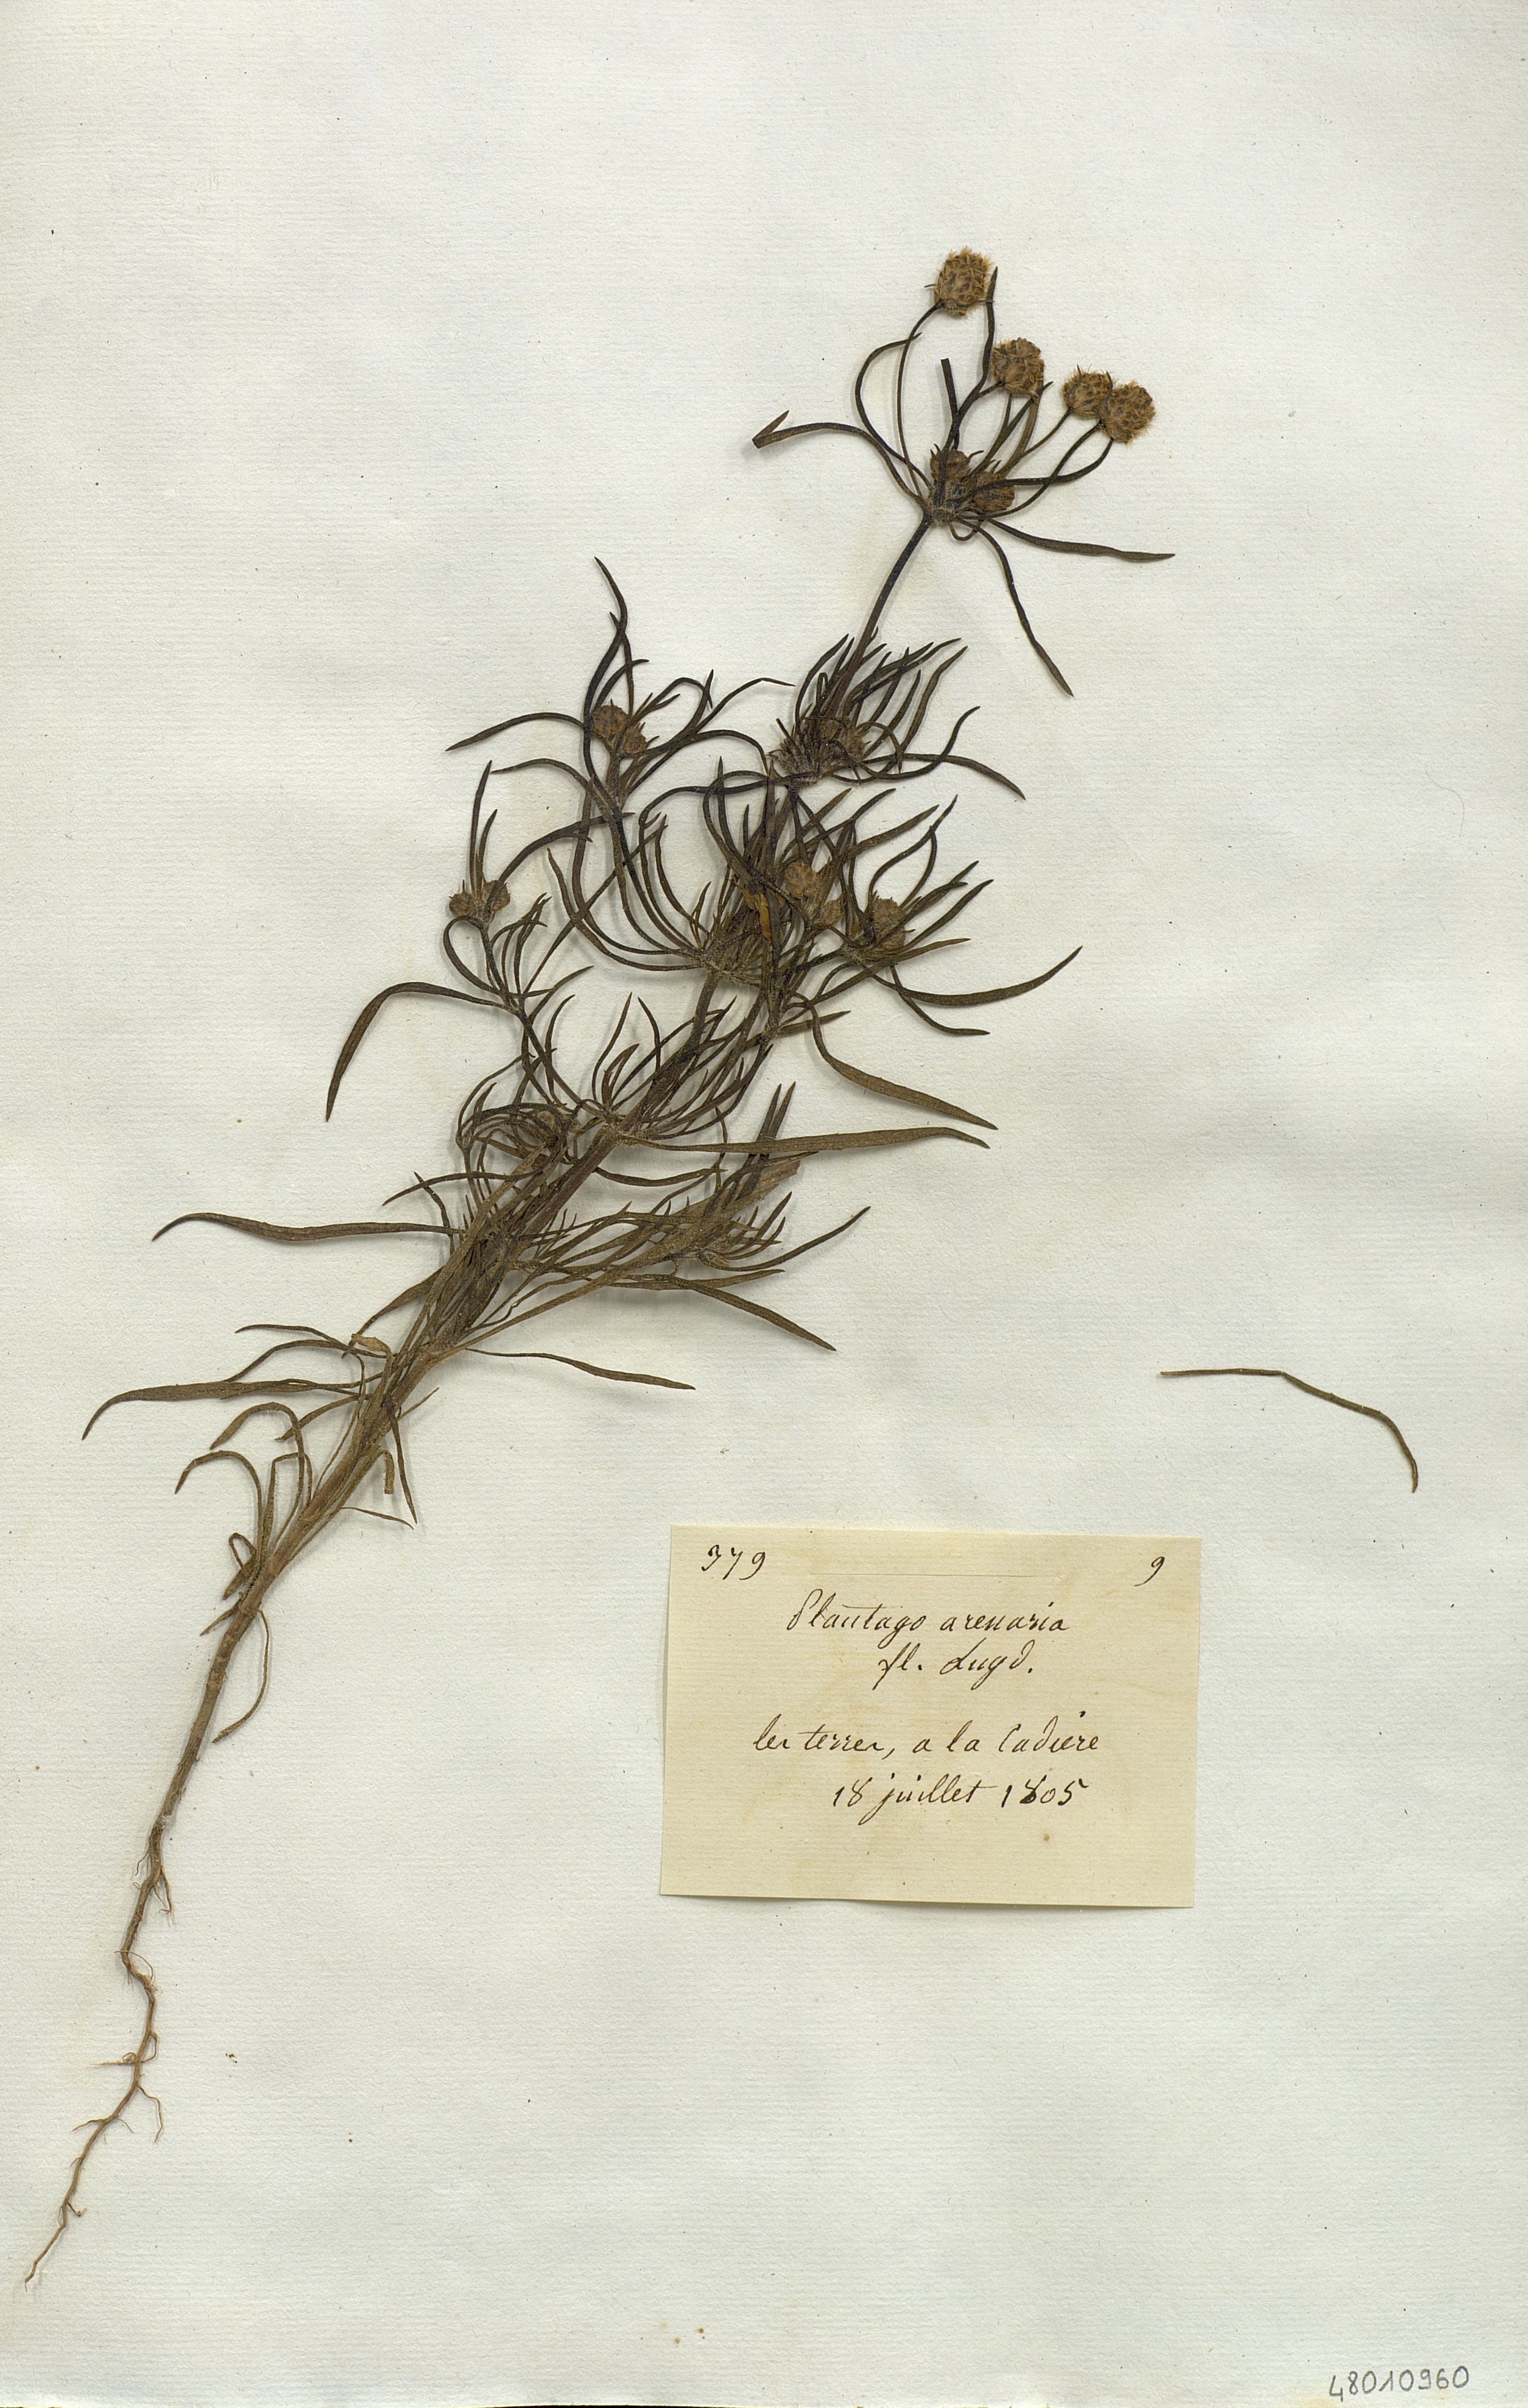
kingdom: Plantae
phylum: Tracheophyta
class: Magnoliopsida
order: Lamiales
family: Plantaginaceae
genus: Plantago
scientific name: Plantago arenaria
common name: Branched plantain
